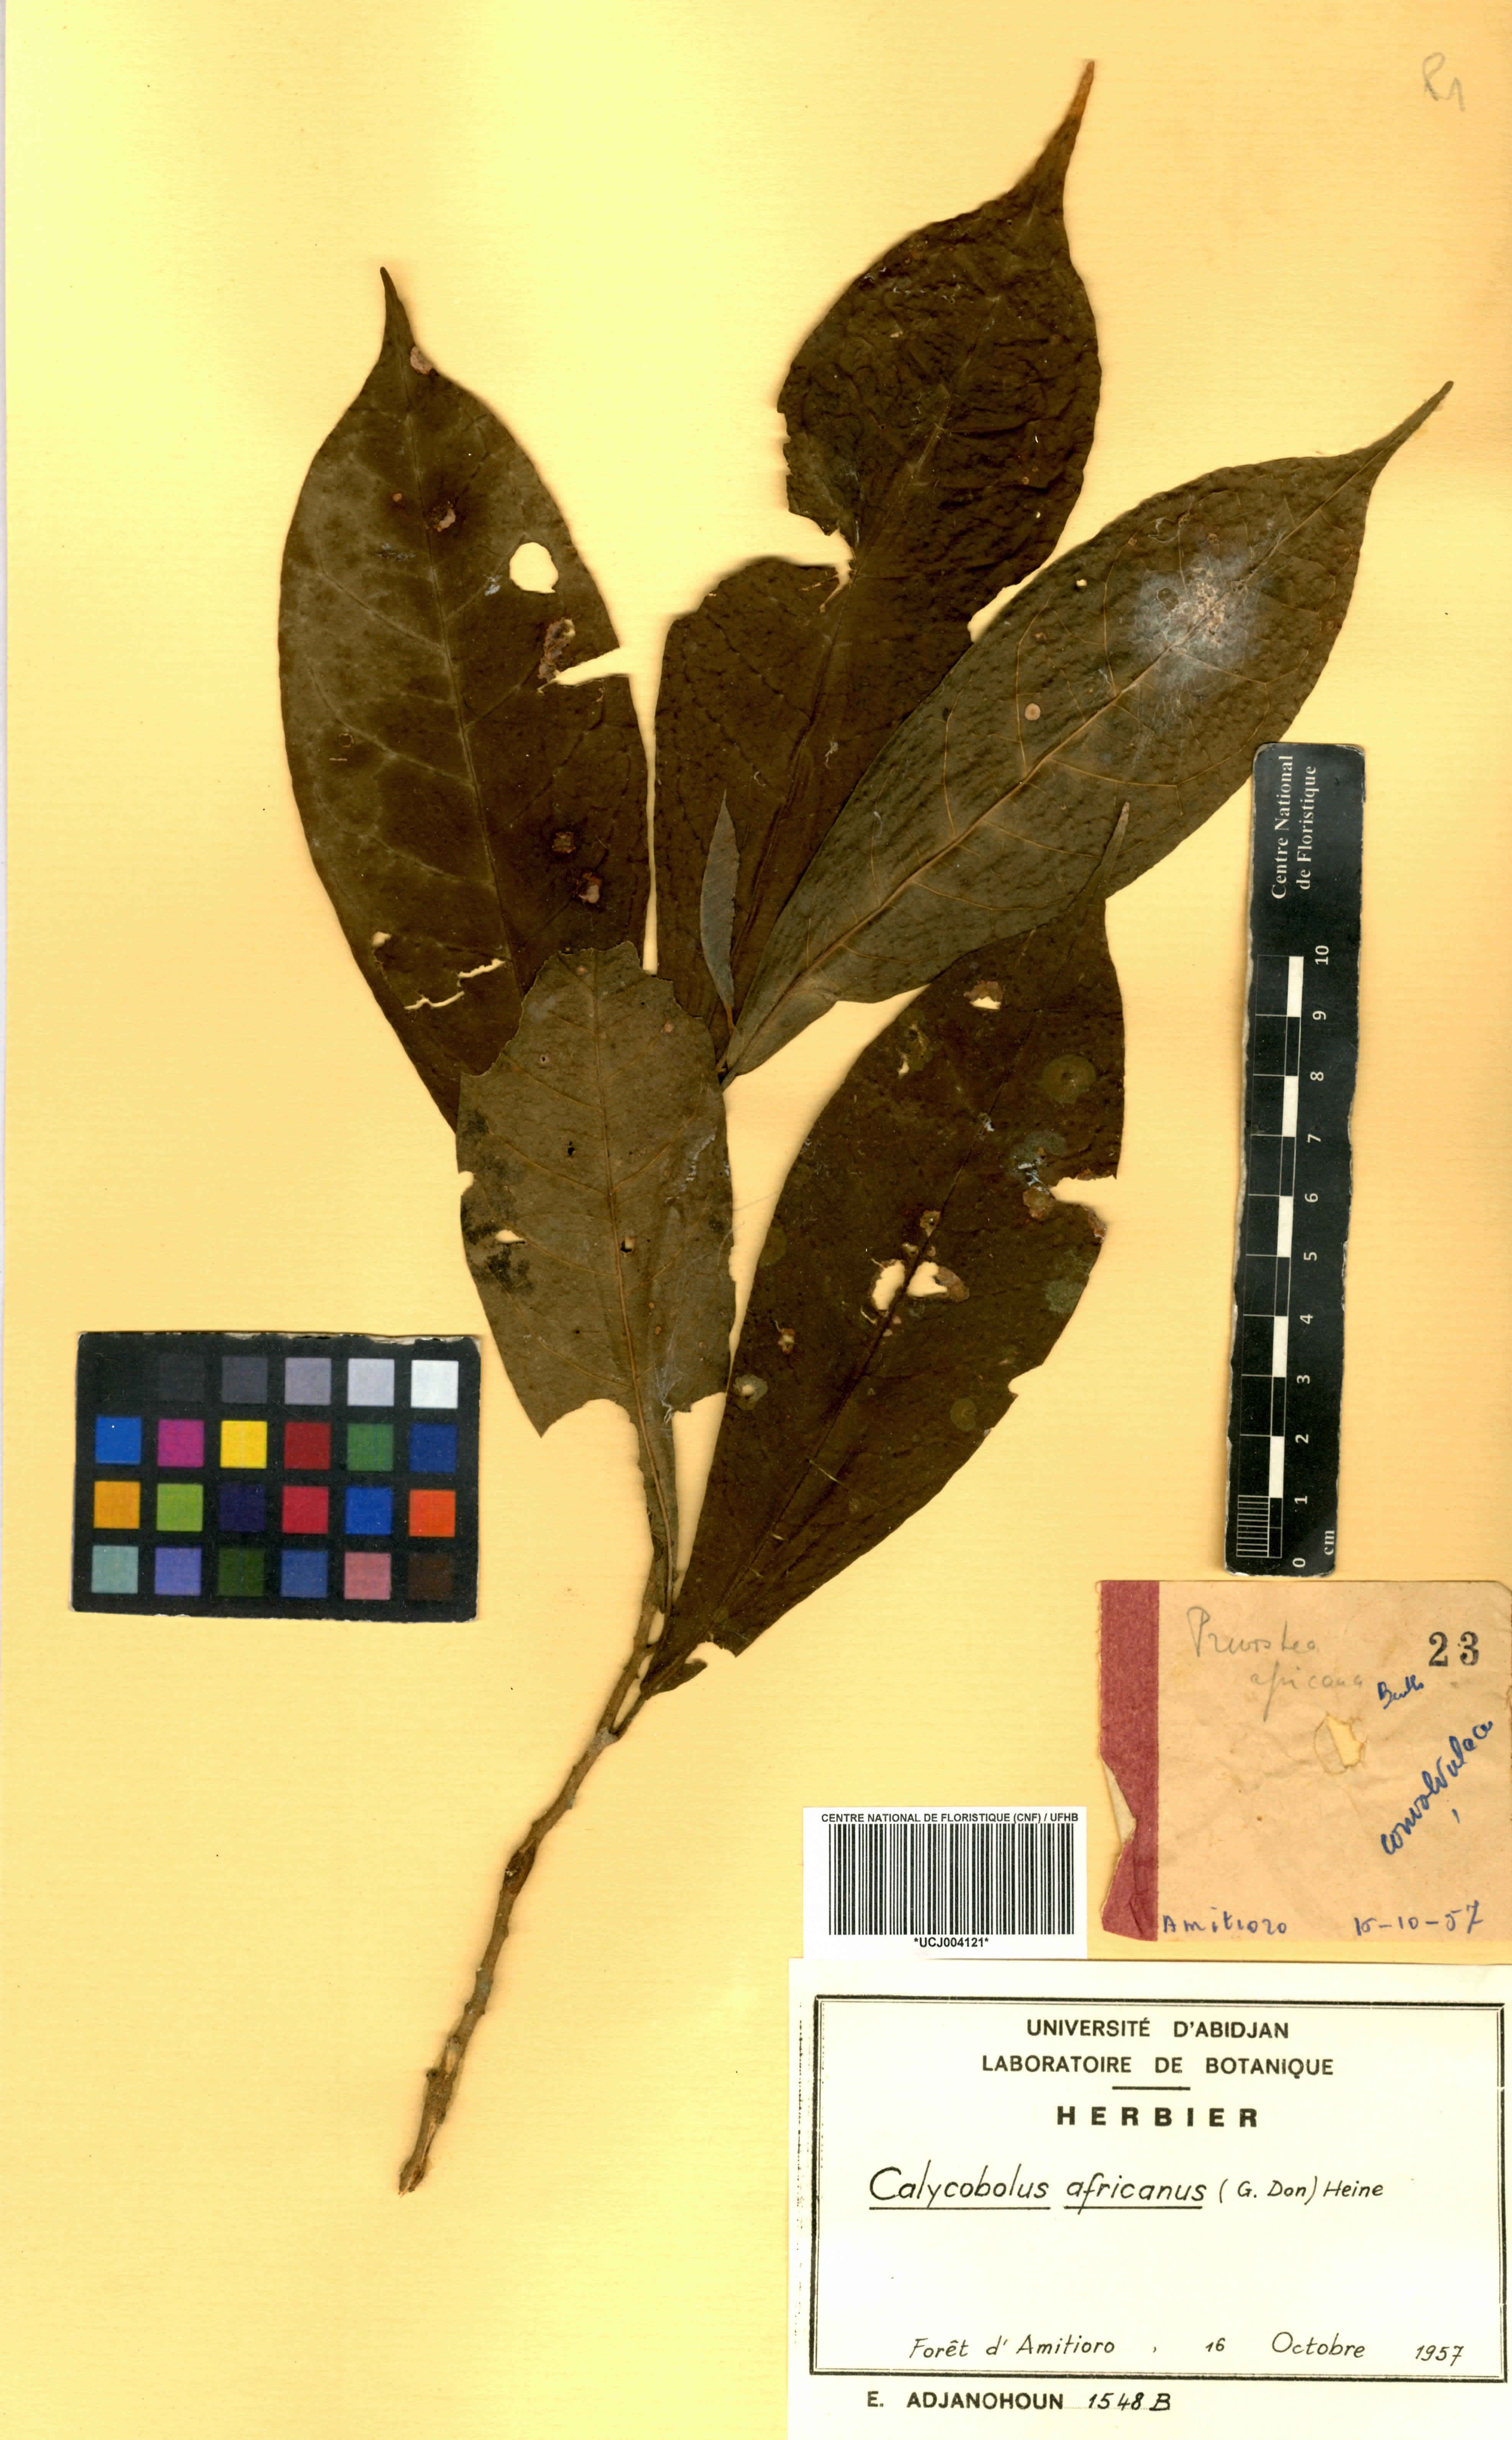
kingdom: Plantae
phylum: Tracheophyta
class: Magnoliopsida
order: Solanales
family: Convolvulaceae
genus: Calycobolus
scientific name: Calycobolus africanus
